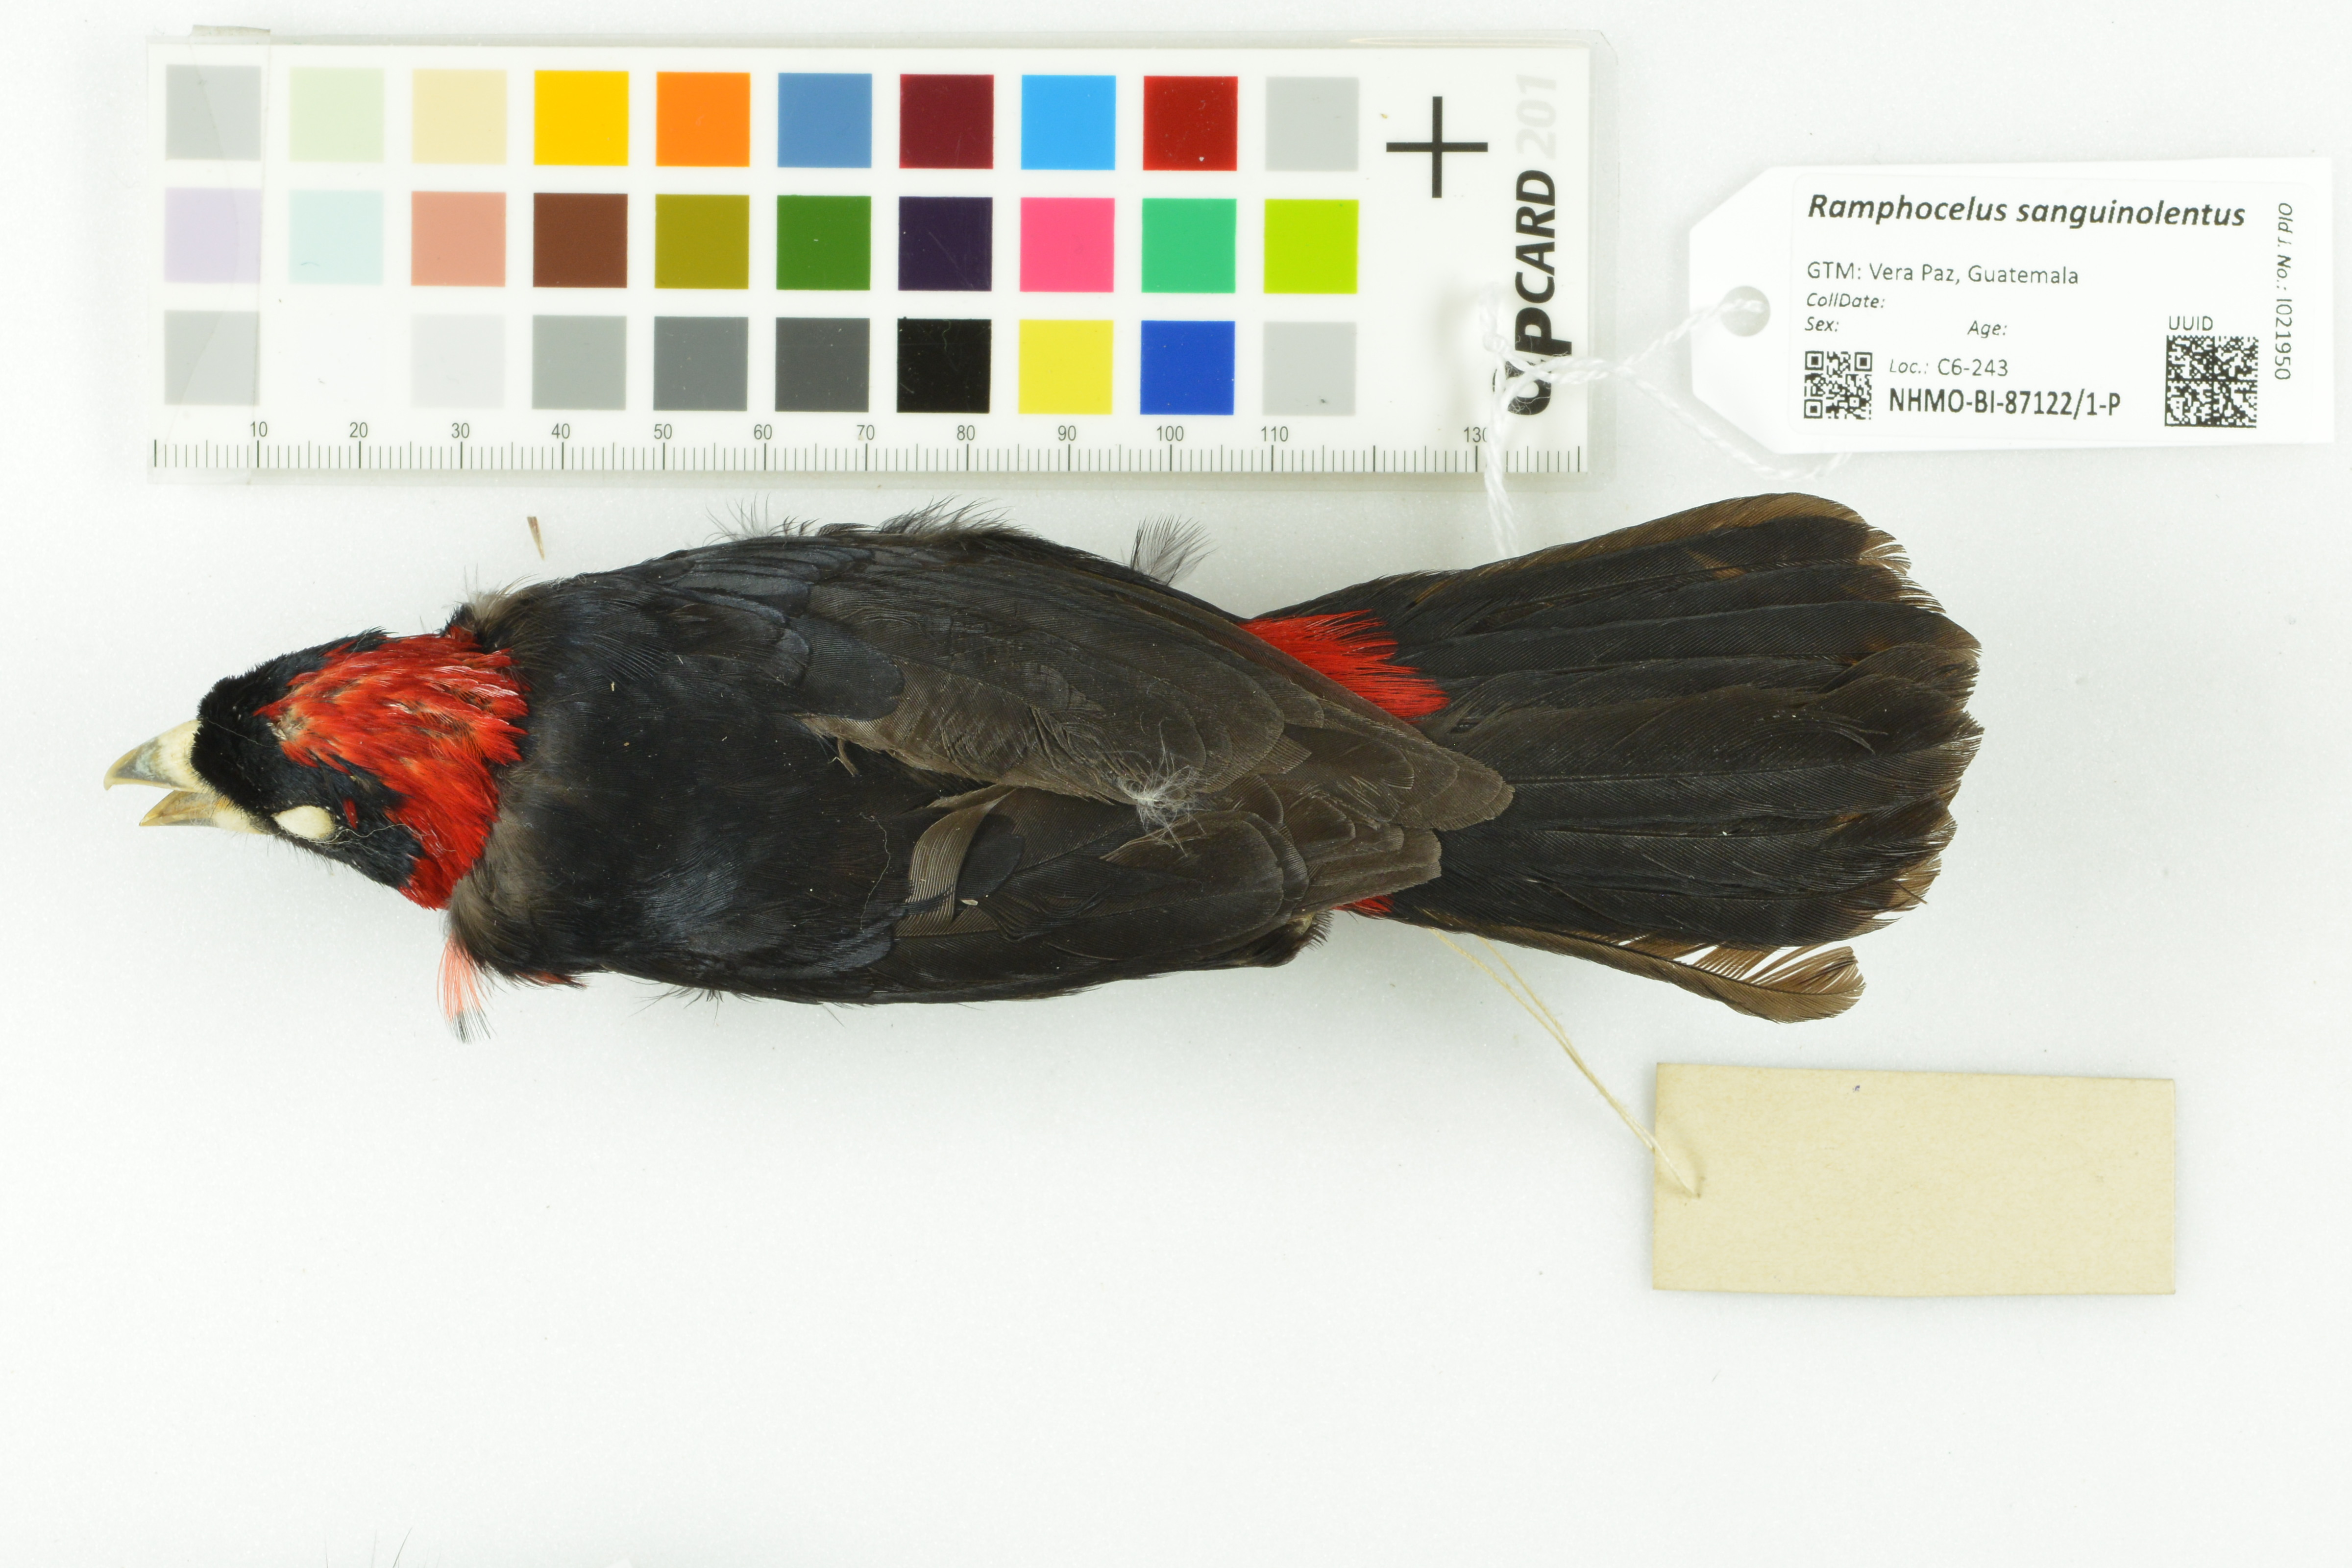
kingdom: Animalia
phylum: Chordata
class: Aves
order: Passeriformes
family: Thraupidae
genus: Ramphocelus
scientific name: Ramphocelus sanguinolentus
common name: Crimson-collared tanager
